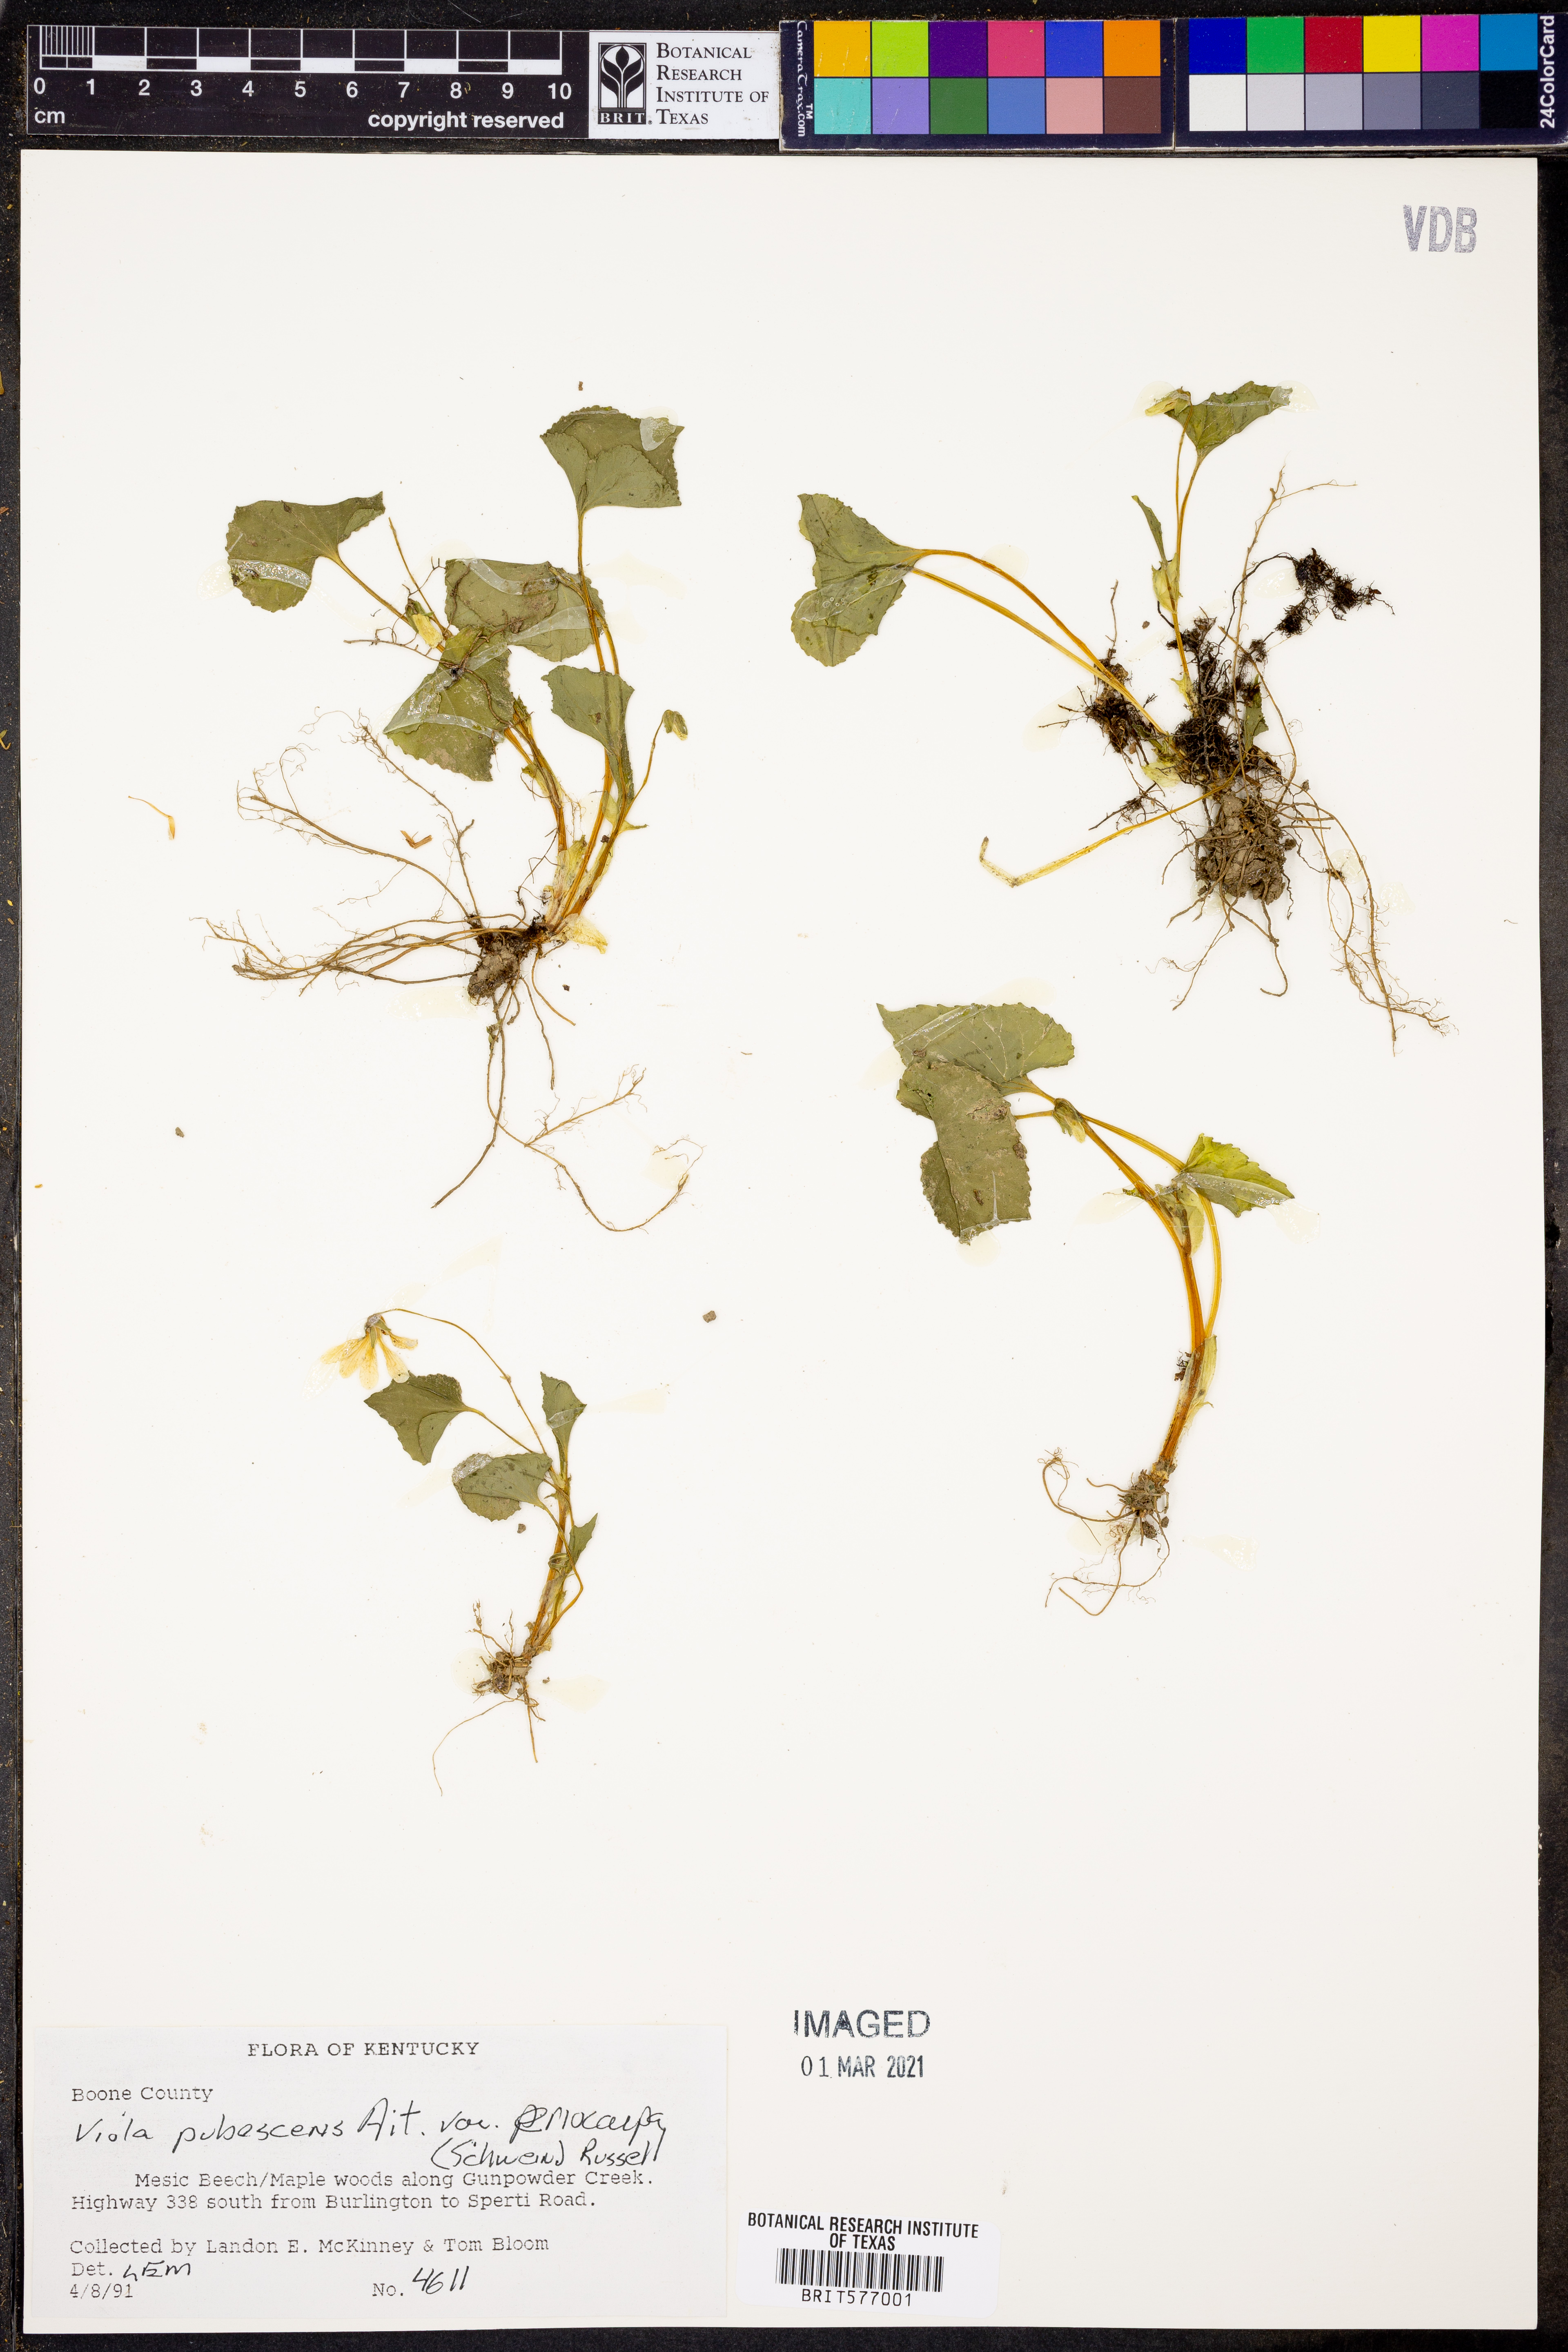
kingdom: Plantae
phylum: Tracheophyta
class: Magnoliopsida
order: Malpighiales
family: Violaceae
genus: Viola
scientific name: Viola eriocarpa
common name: Smooth yellow violet
